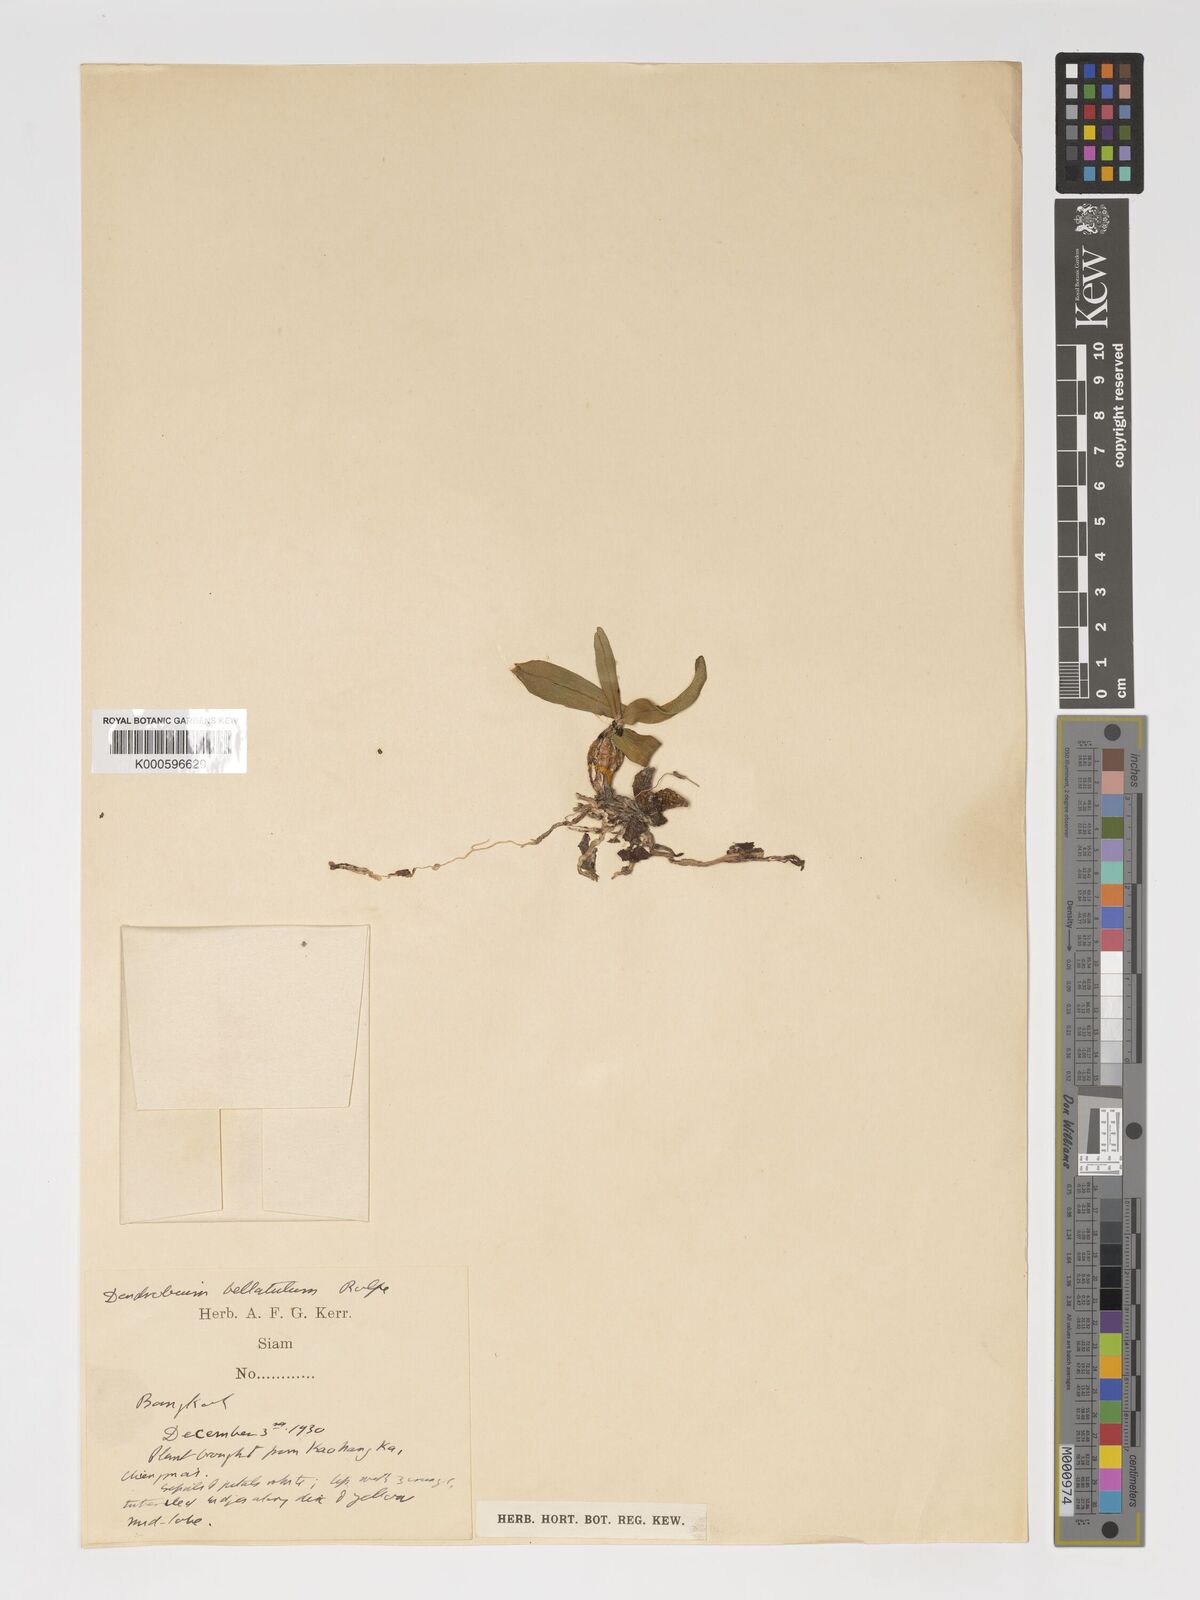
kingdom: Plantae
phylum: Tracheophyta
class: Liliopsida
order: Asparagales
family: Orchidaceae
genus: Dendrobium
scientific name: Dendrobium bellatulum
